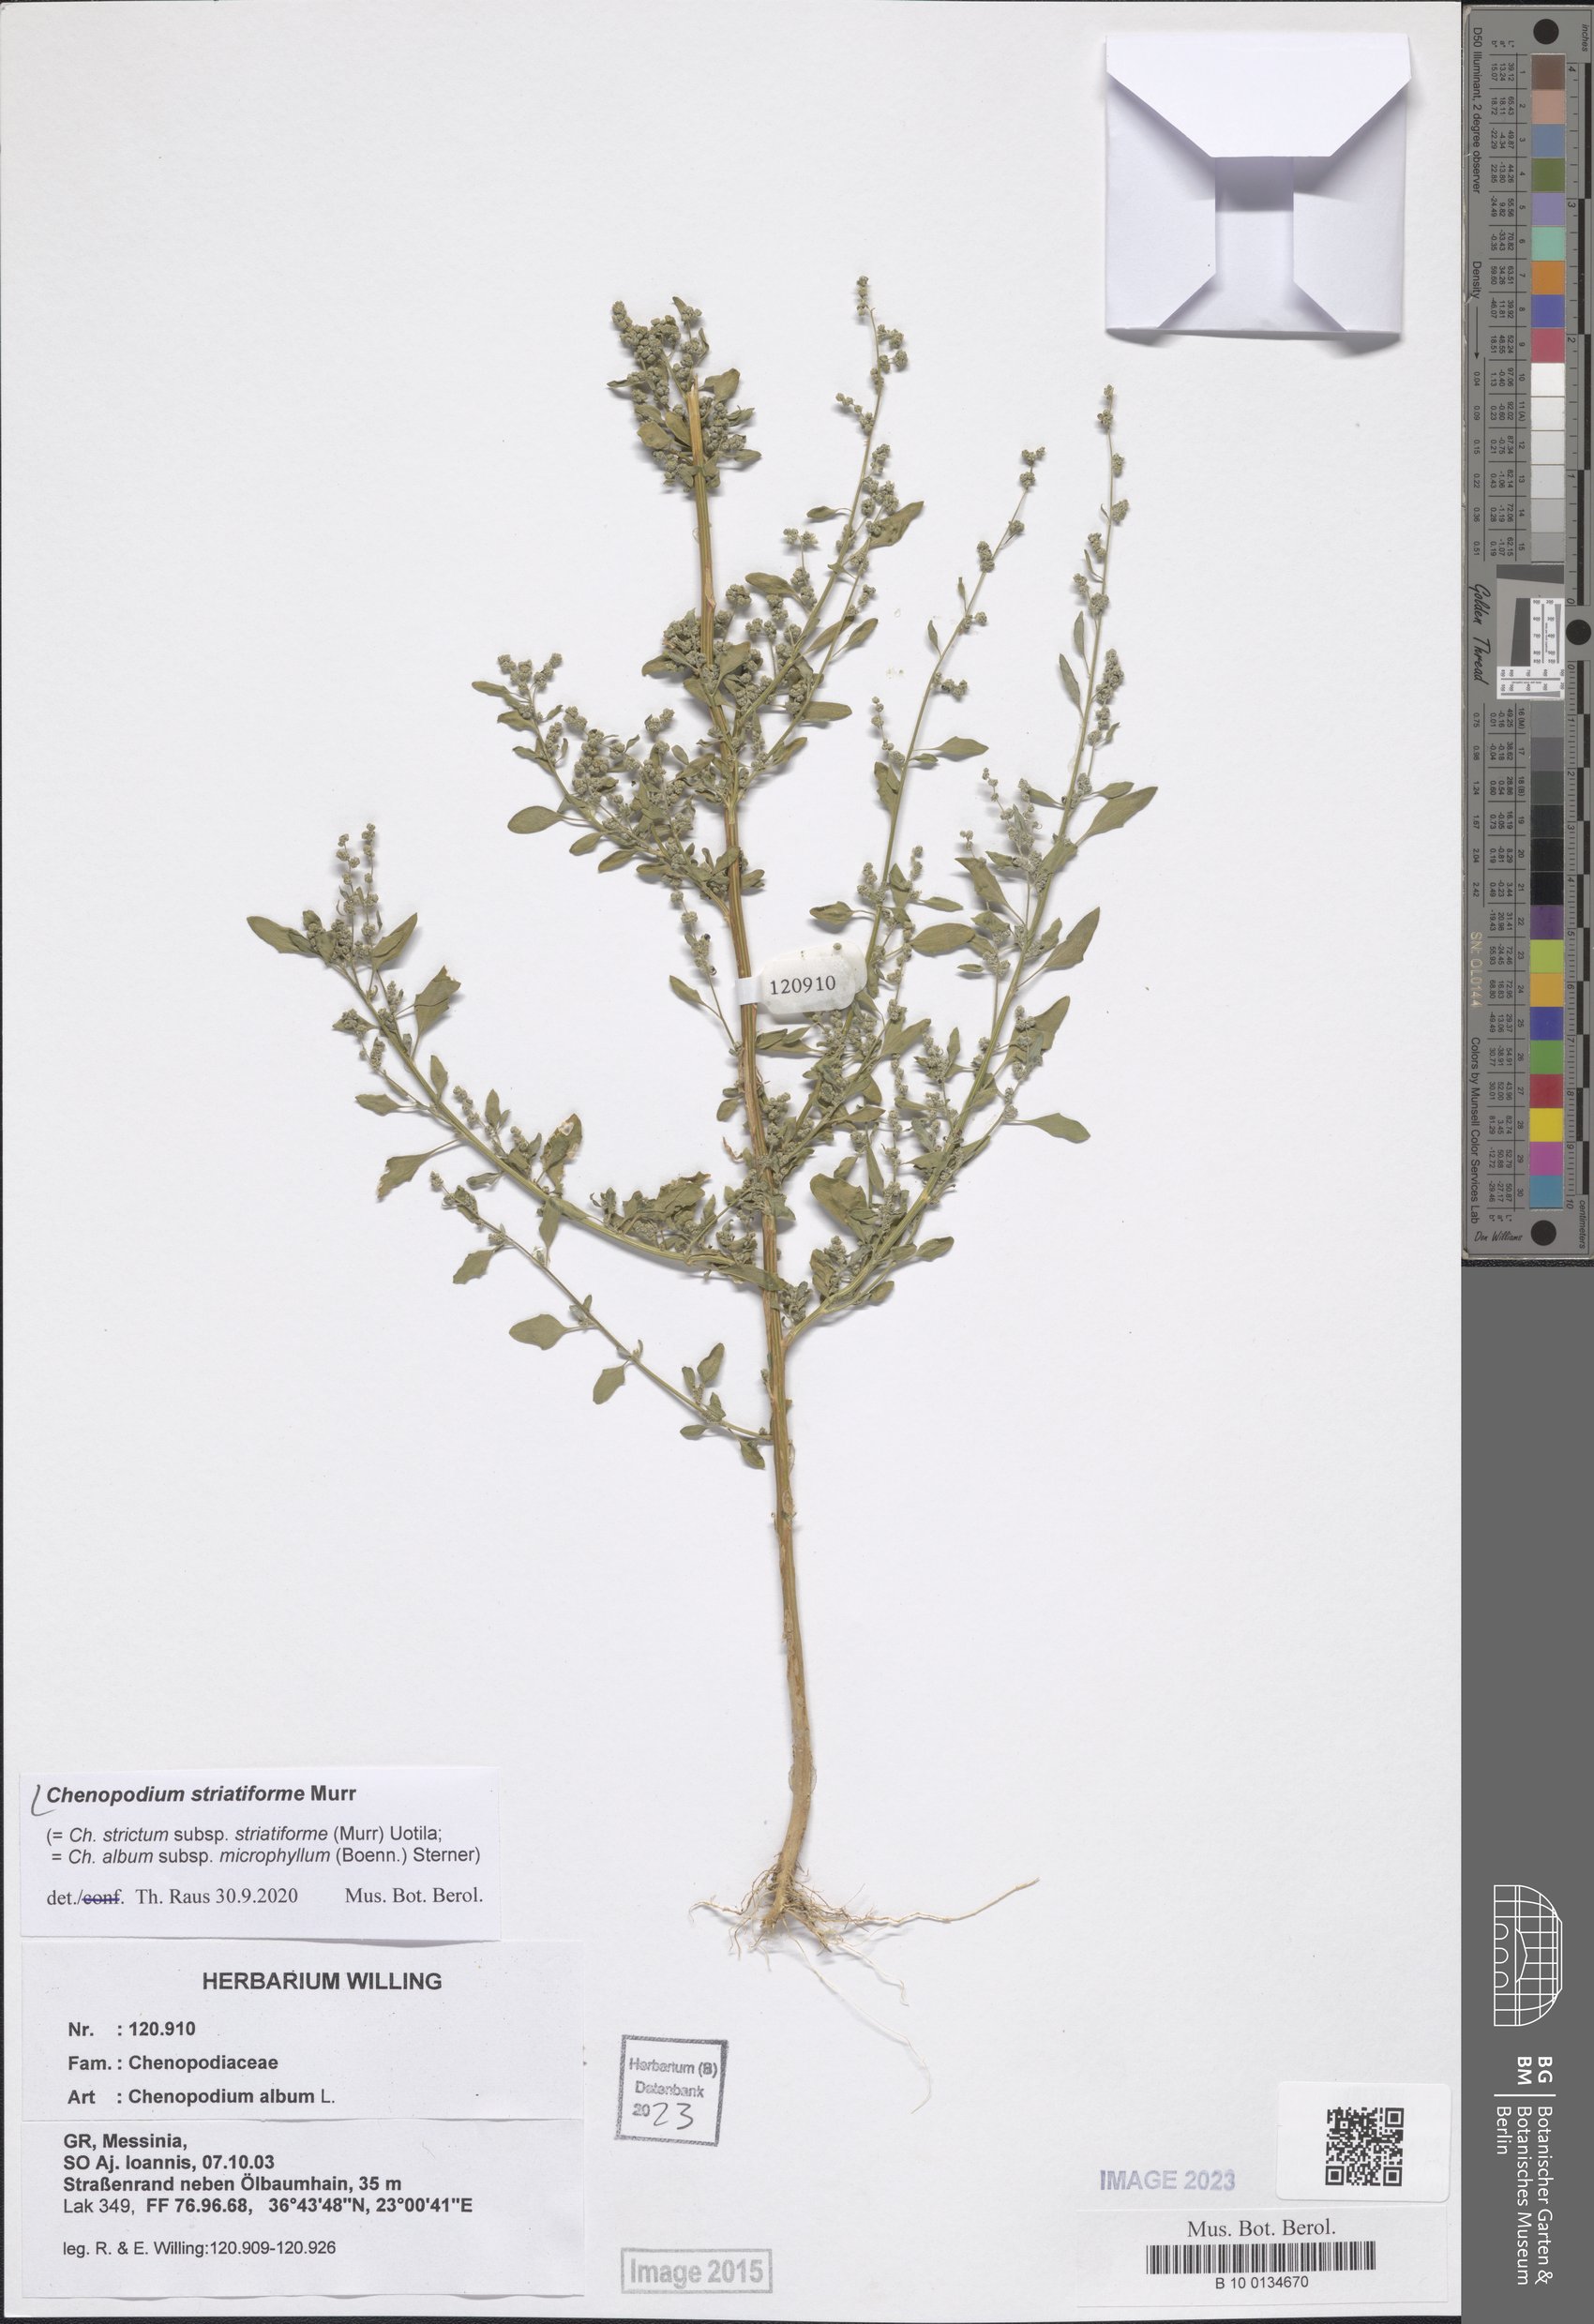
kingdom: Plantae
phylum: Tracheophyta
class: Magnoliopsida
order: Caryophyllales
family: Amaranthaceae
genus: Chenopodium
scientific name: Chenopodium striatiforme
